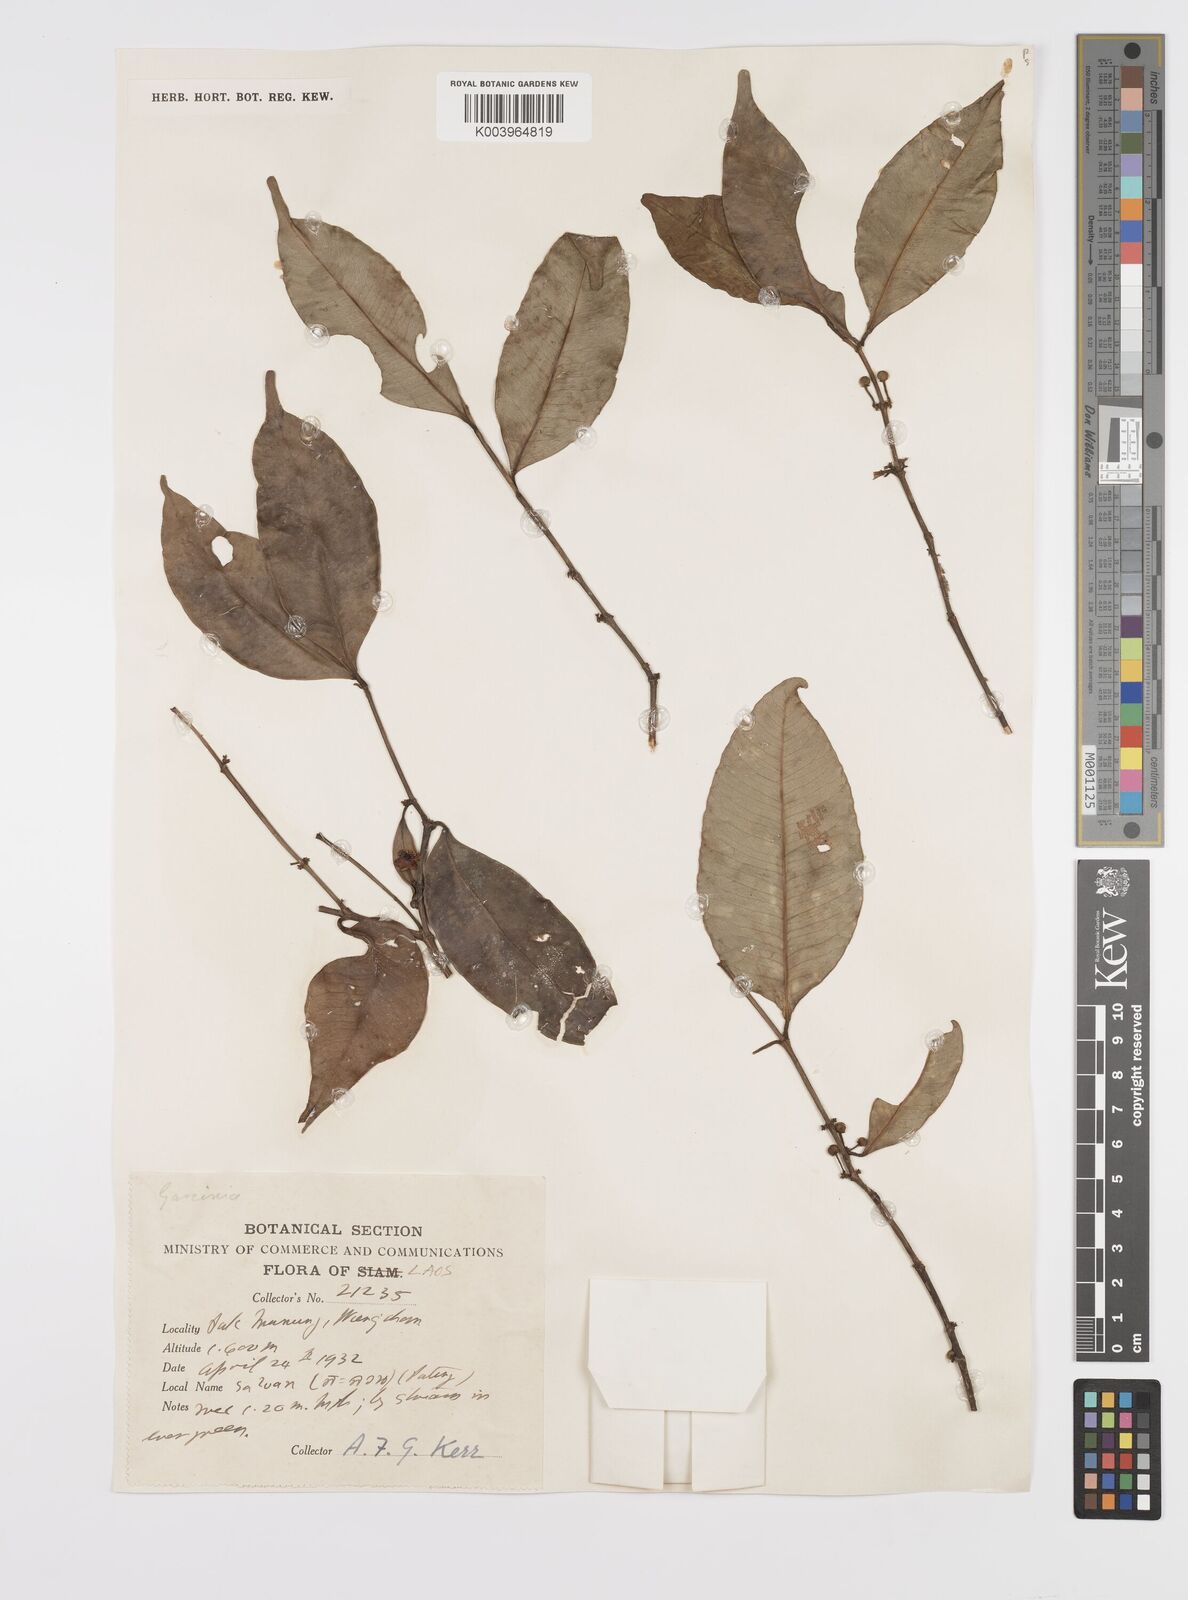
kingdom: Plantae
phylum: Tracheophyta
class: Magnoliopsida
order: Malpighiales
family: Clusiaceae
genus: Garcinia
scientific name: Garcinia
